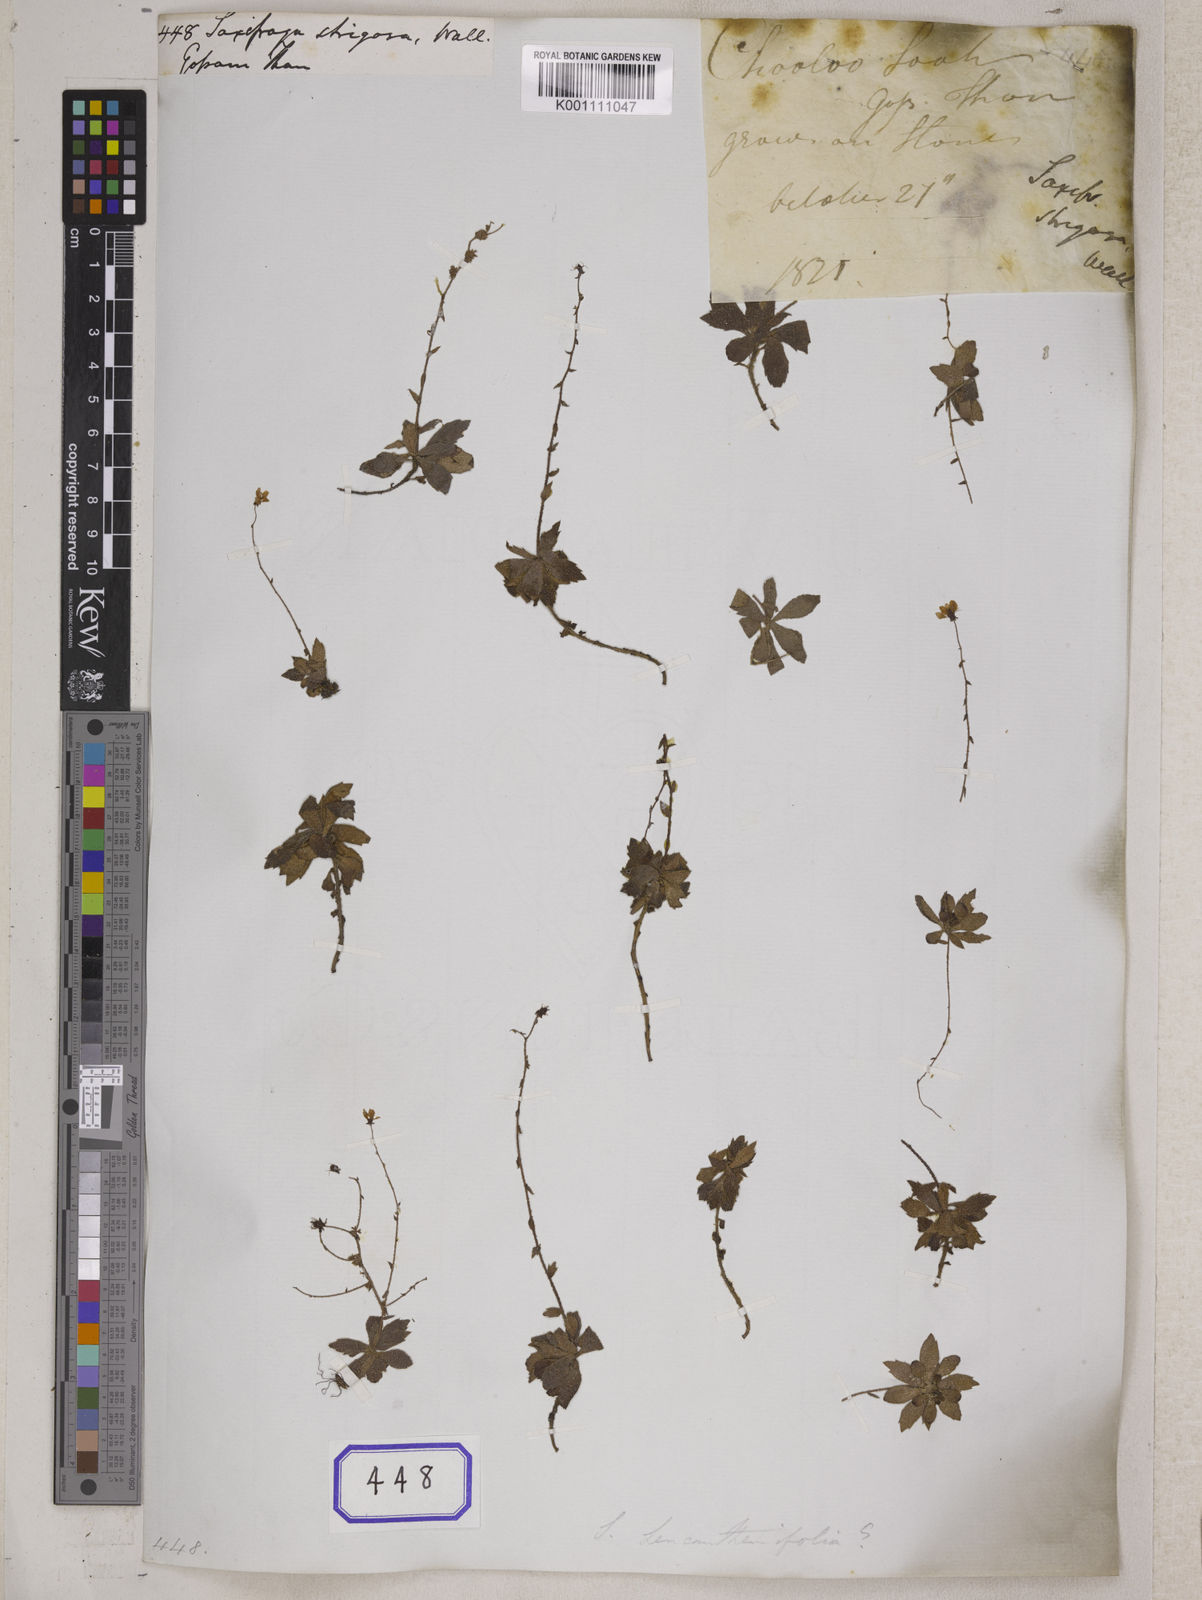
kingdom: Plantae
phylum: Tracheophyta
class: Magnoliopsida
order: Saxifragales
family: Saxifragaceae
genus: Saxifraga
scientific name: Saxifraga
